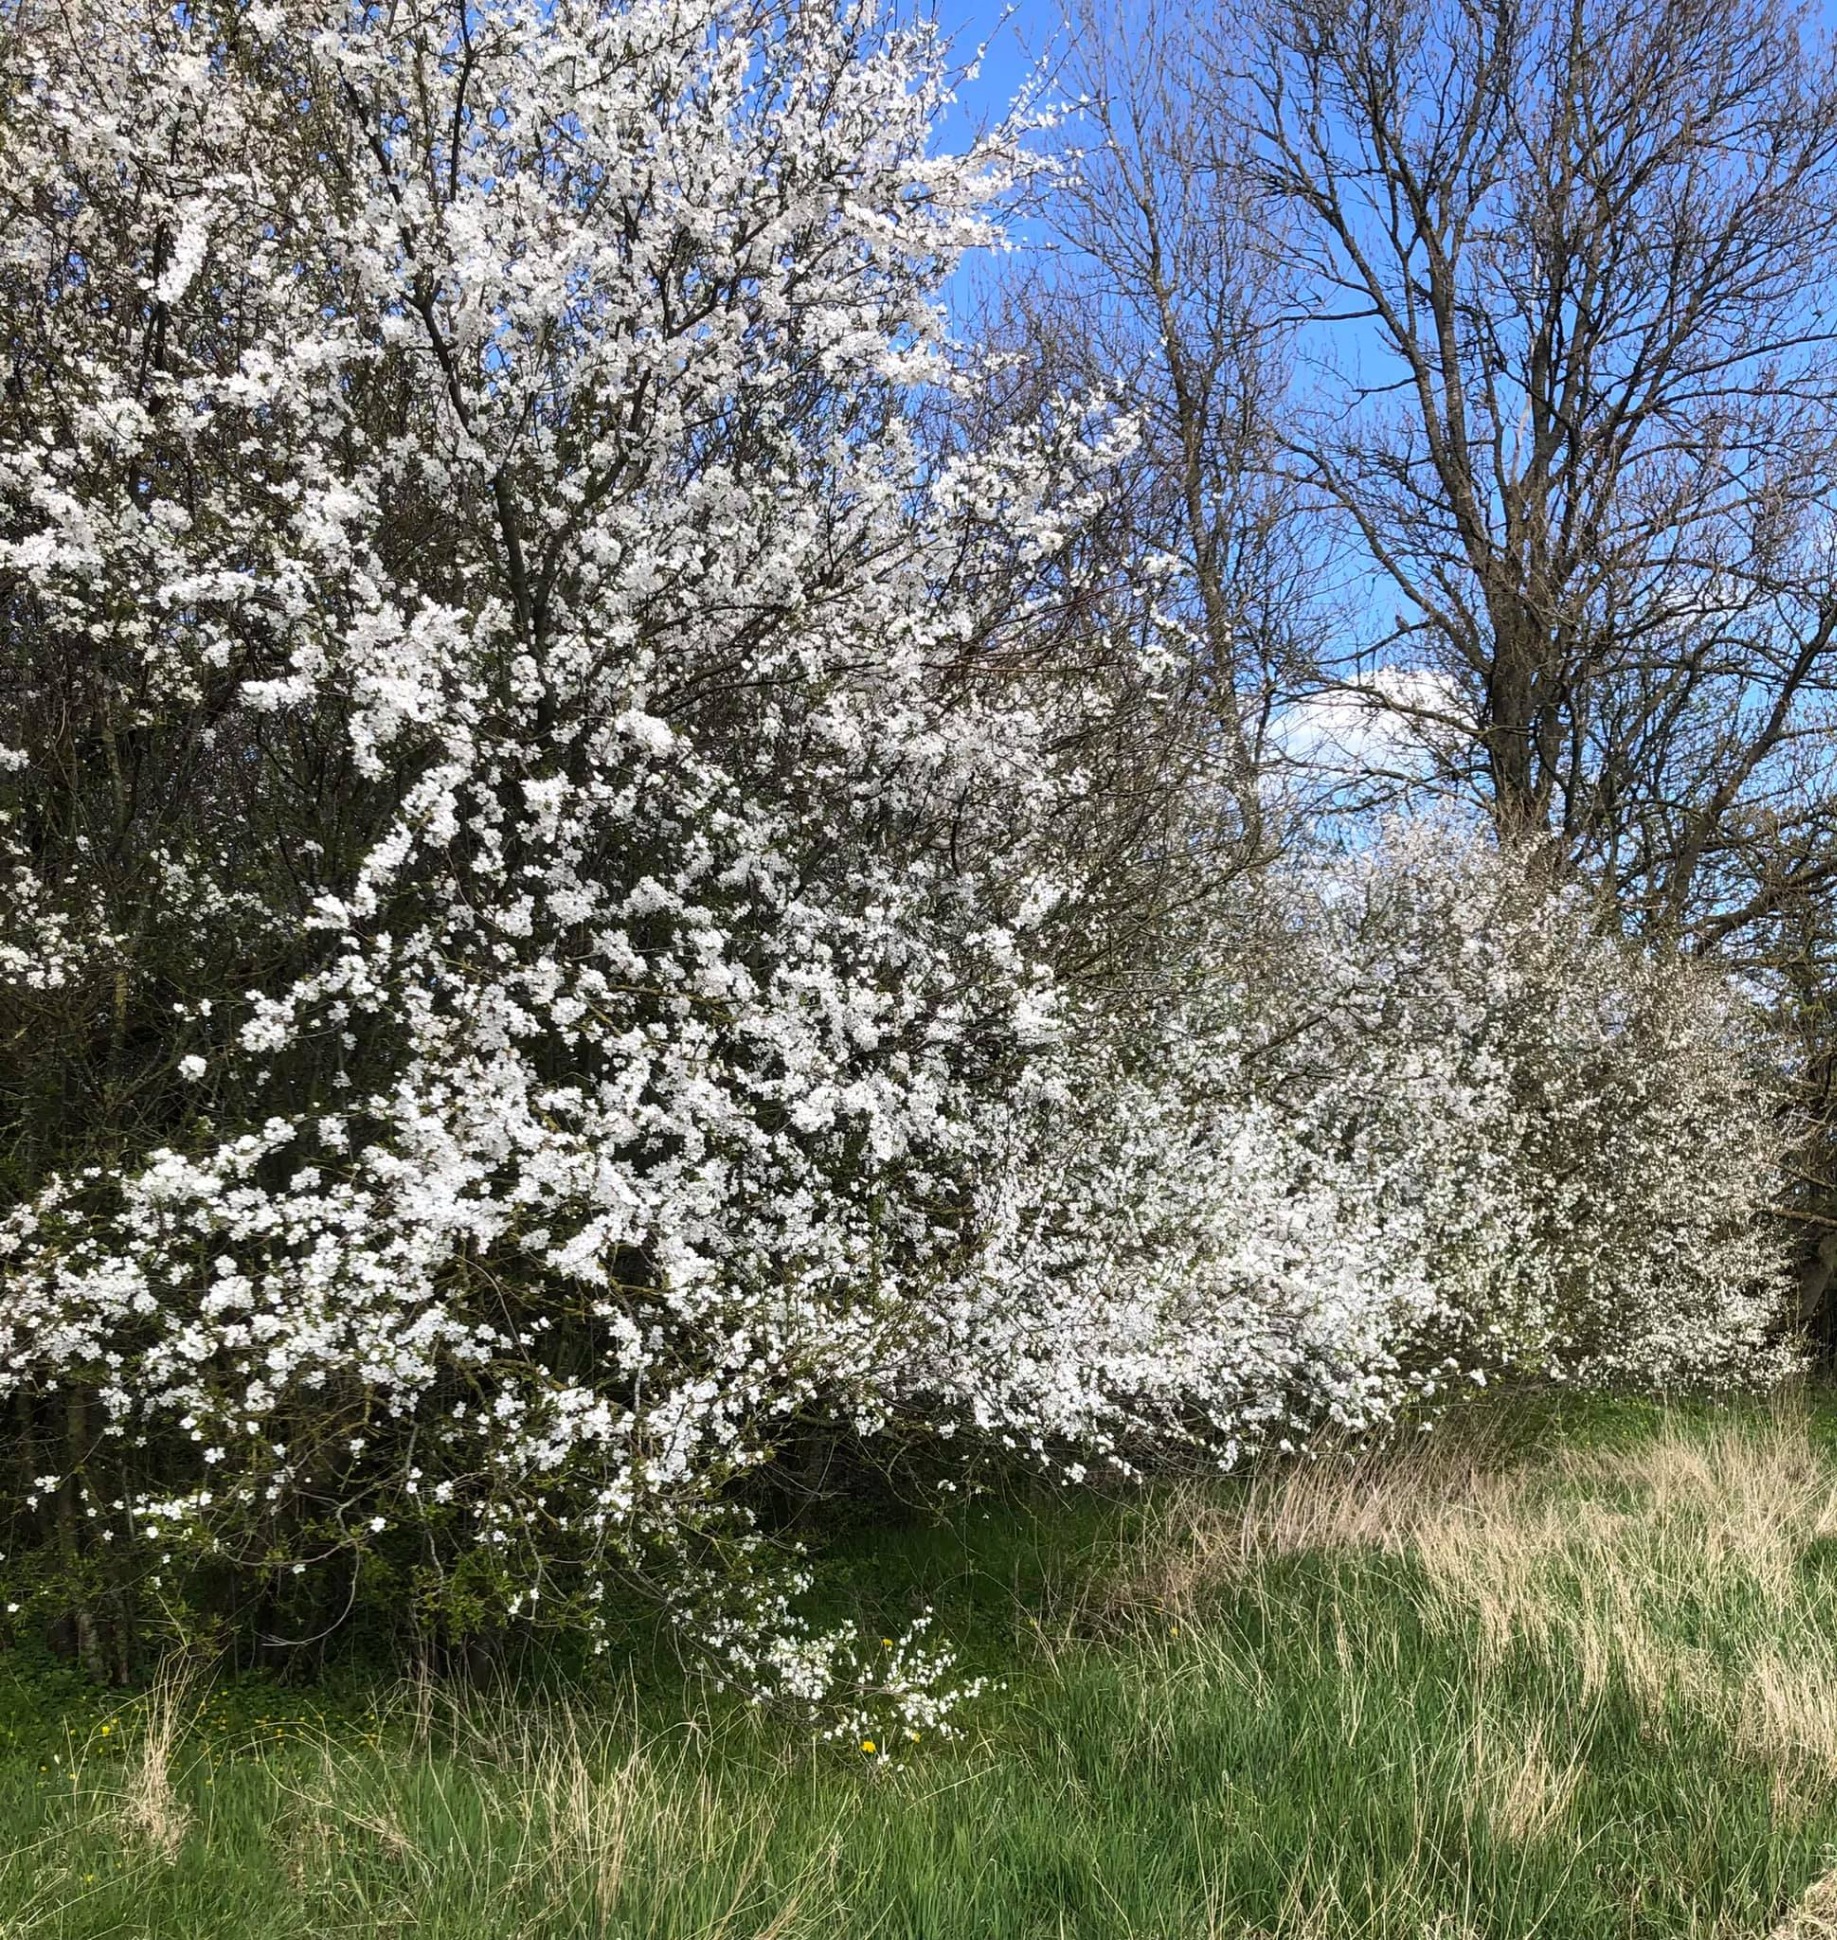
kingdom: Plantae
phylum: Tracheophyta
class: Magnoliopsida
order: Rosales
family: Rosaceae
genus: Prunus
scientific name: Prunus cerasifera
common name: Mirabel
